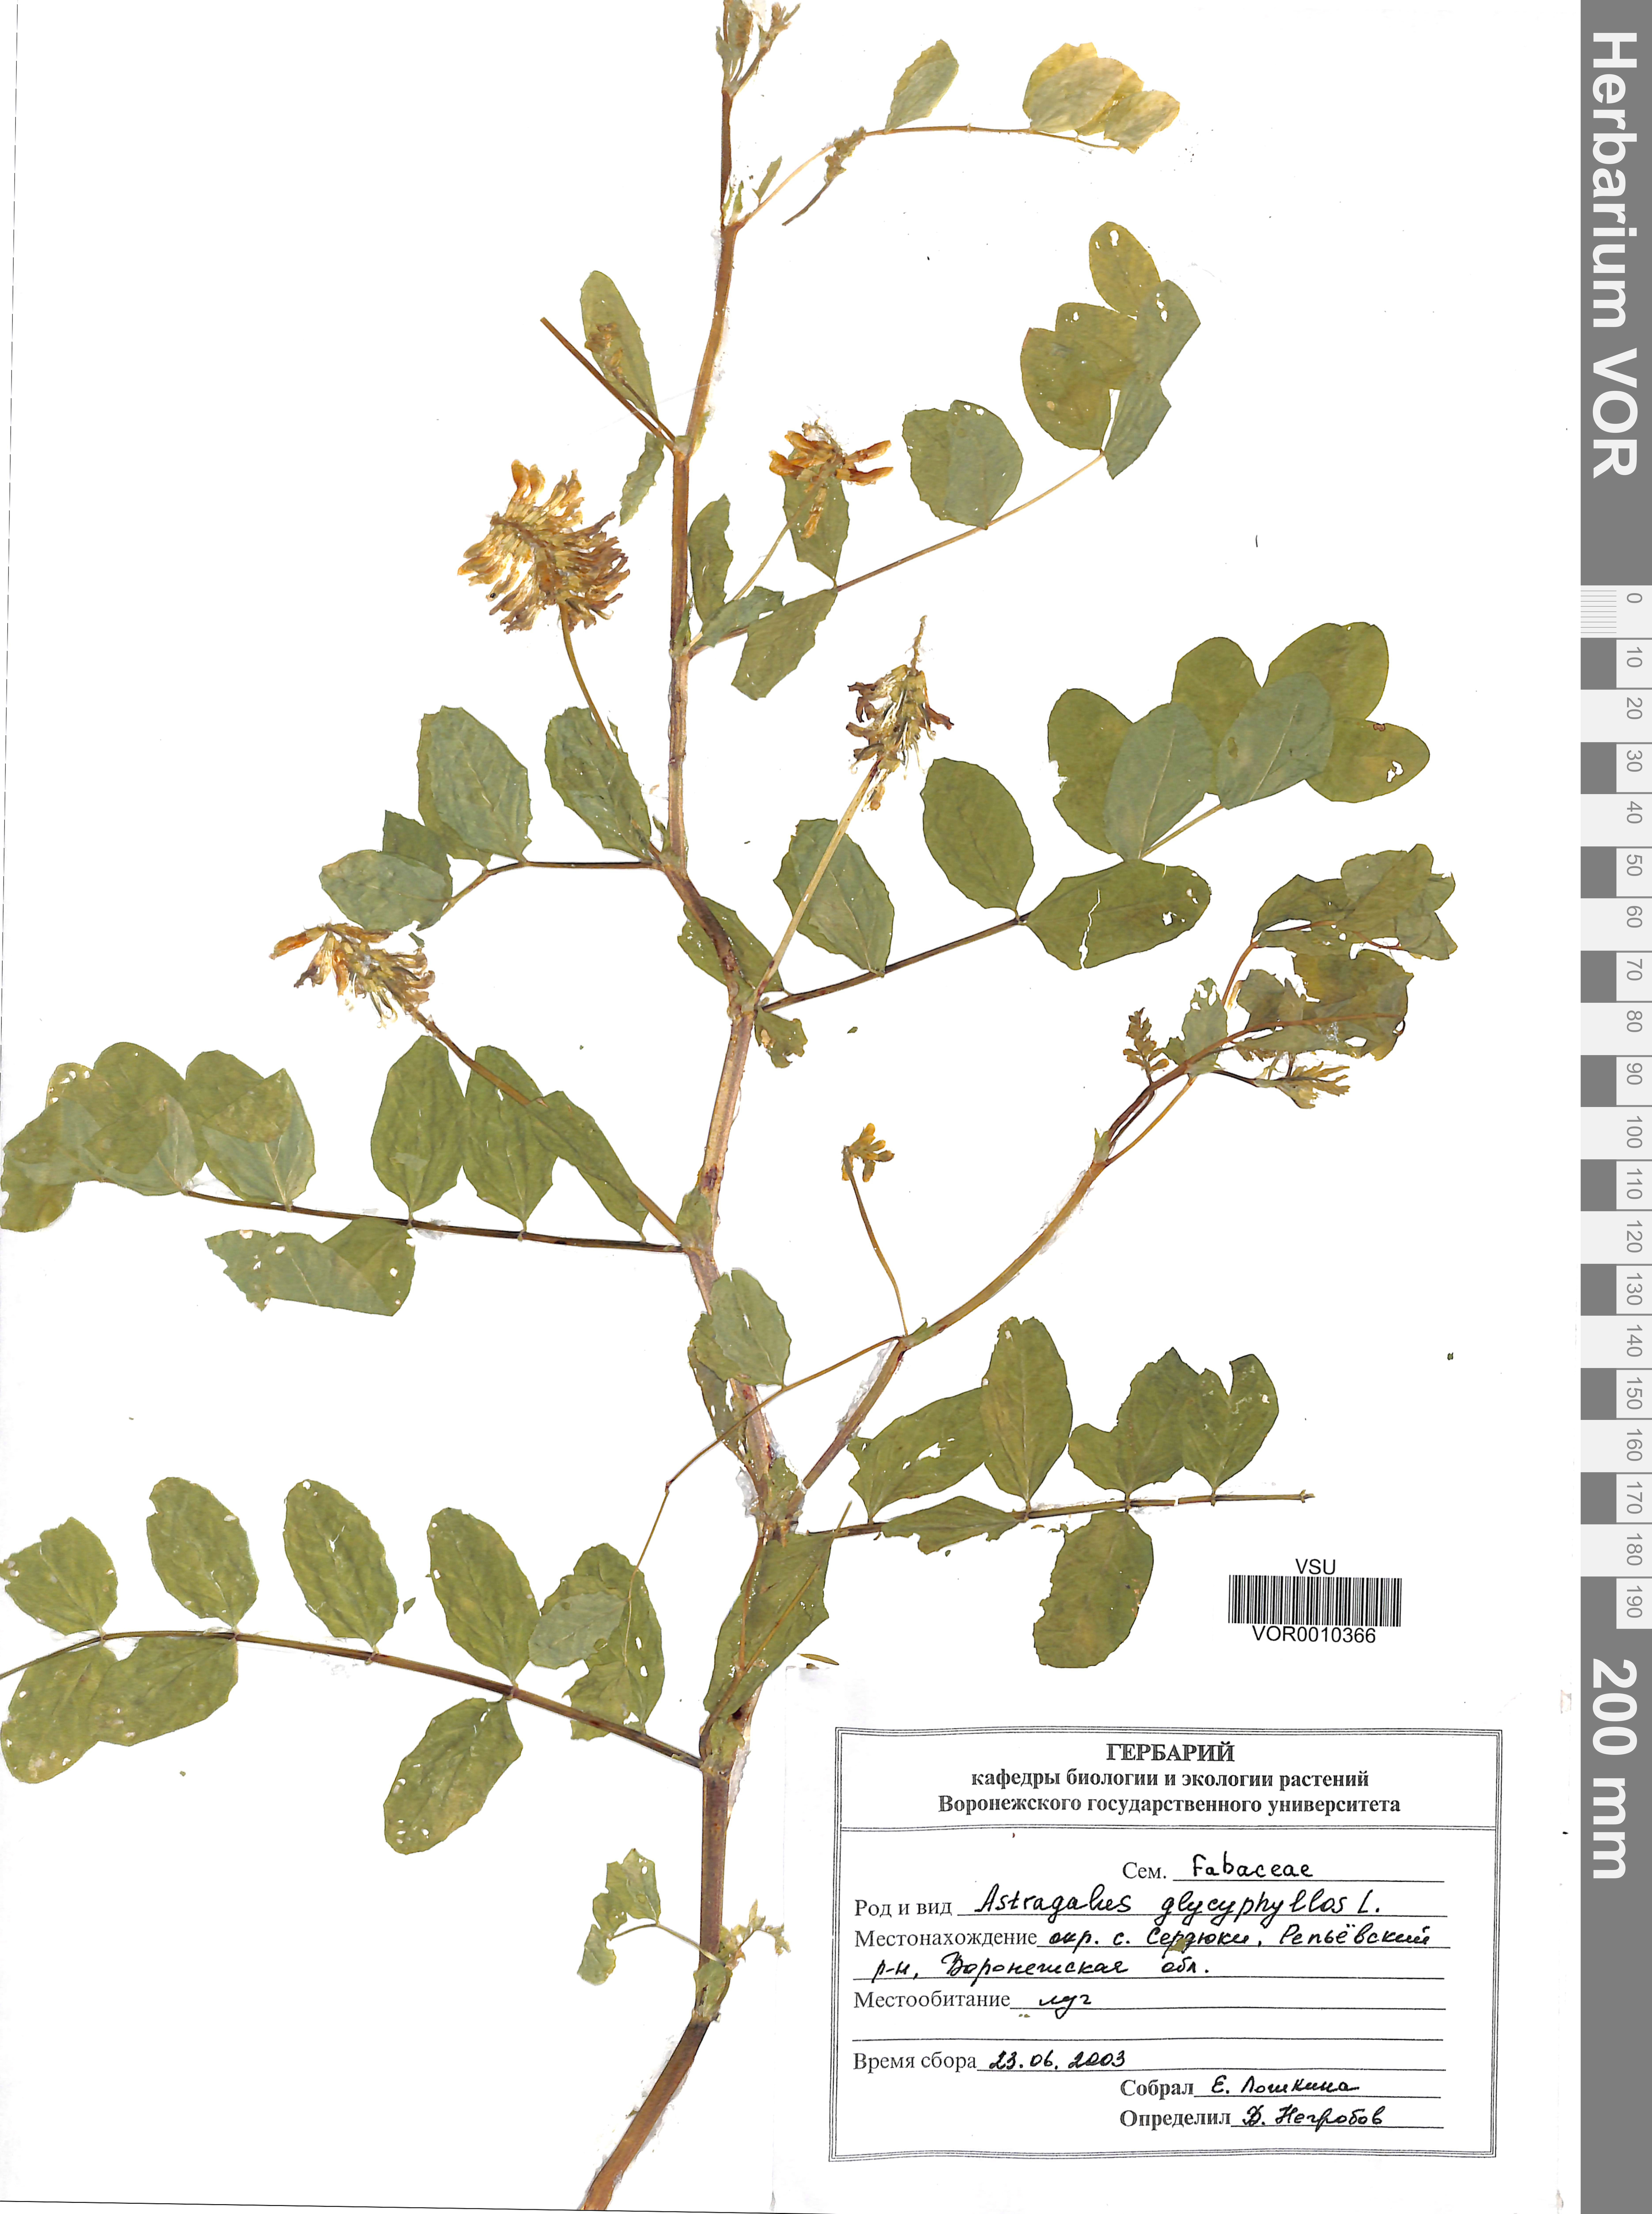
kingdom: Plantae
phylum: Tracheophyta
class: Magnoliopsida
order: Fabales
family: Fabaceae
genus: Astragalus
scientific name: Astragalus glycyphyllos
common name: Wild liquorice
